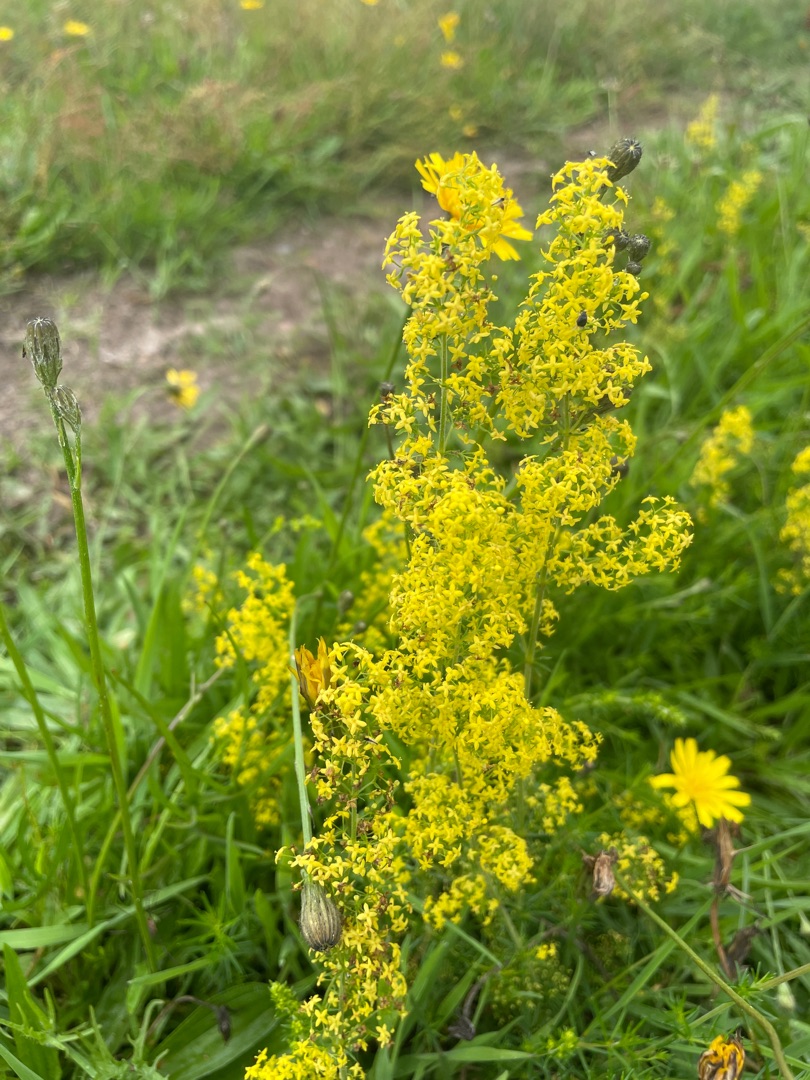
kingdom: Plantae
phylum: Tracheophyta
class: Magnoliopsida
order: Gentianales
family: Rubiaceae
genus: Galium
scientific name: Galium verum
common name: Gul snerre
